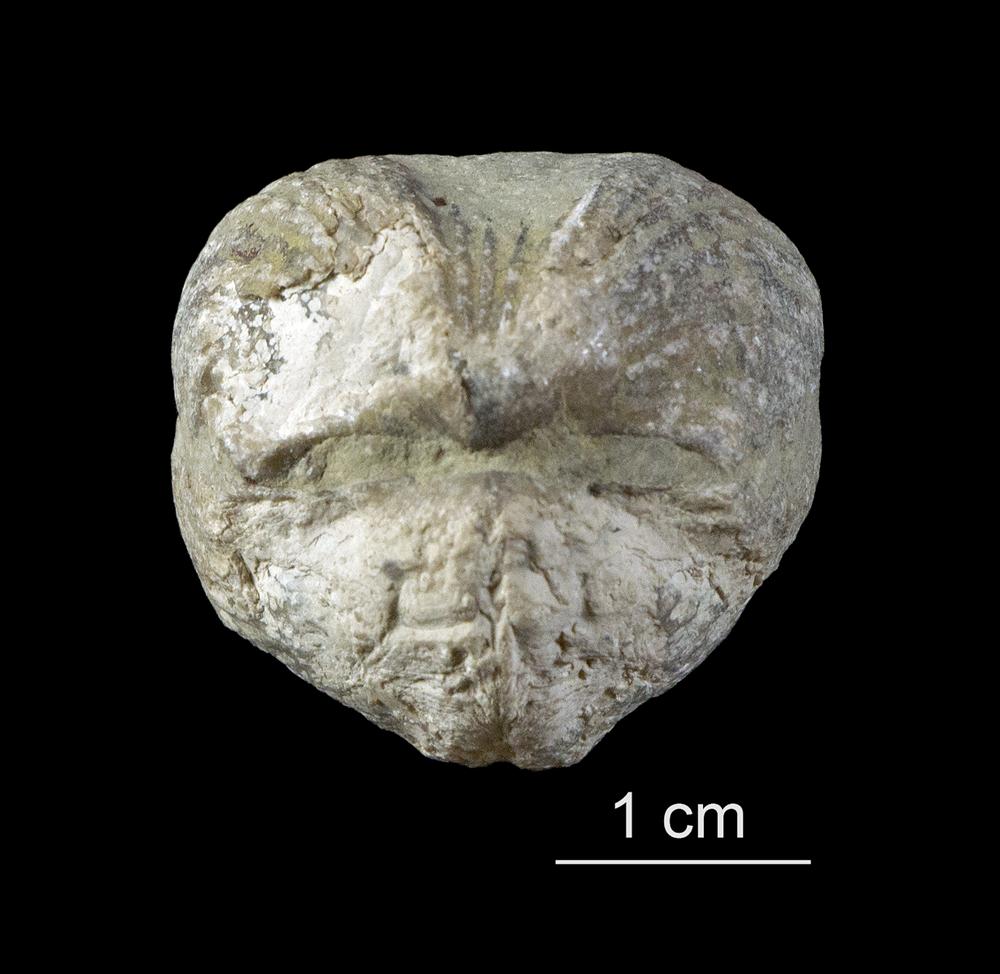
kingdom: Animalia
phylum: Brachiopoda
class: Rhynchonellata
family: Platystrophiidae
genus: Neoplatystrophia
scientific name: Neoplatystrophia Platystrophia lynx
